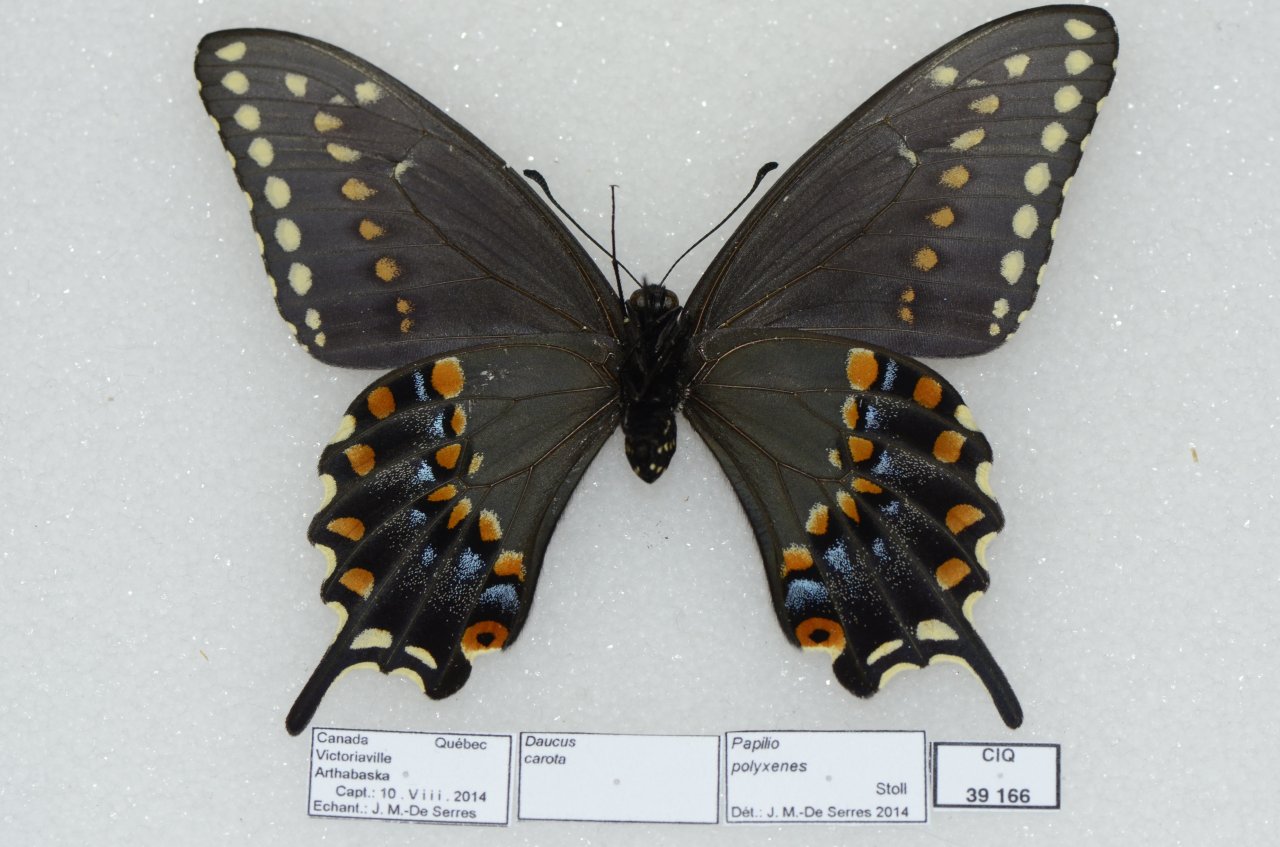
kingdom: Animalia
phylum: Arthropoda
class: Insecta
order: Lepidoptera
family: Papilionidae
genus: Papilio
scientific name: Papilio polyxenes
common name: Black Swallowtail
